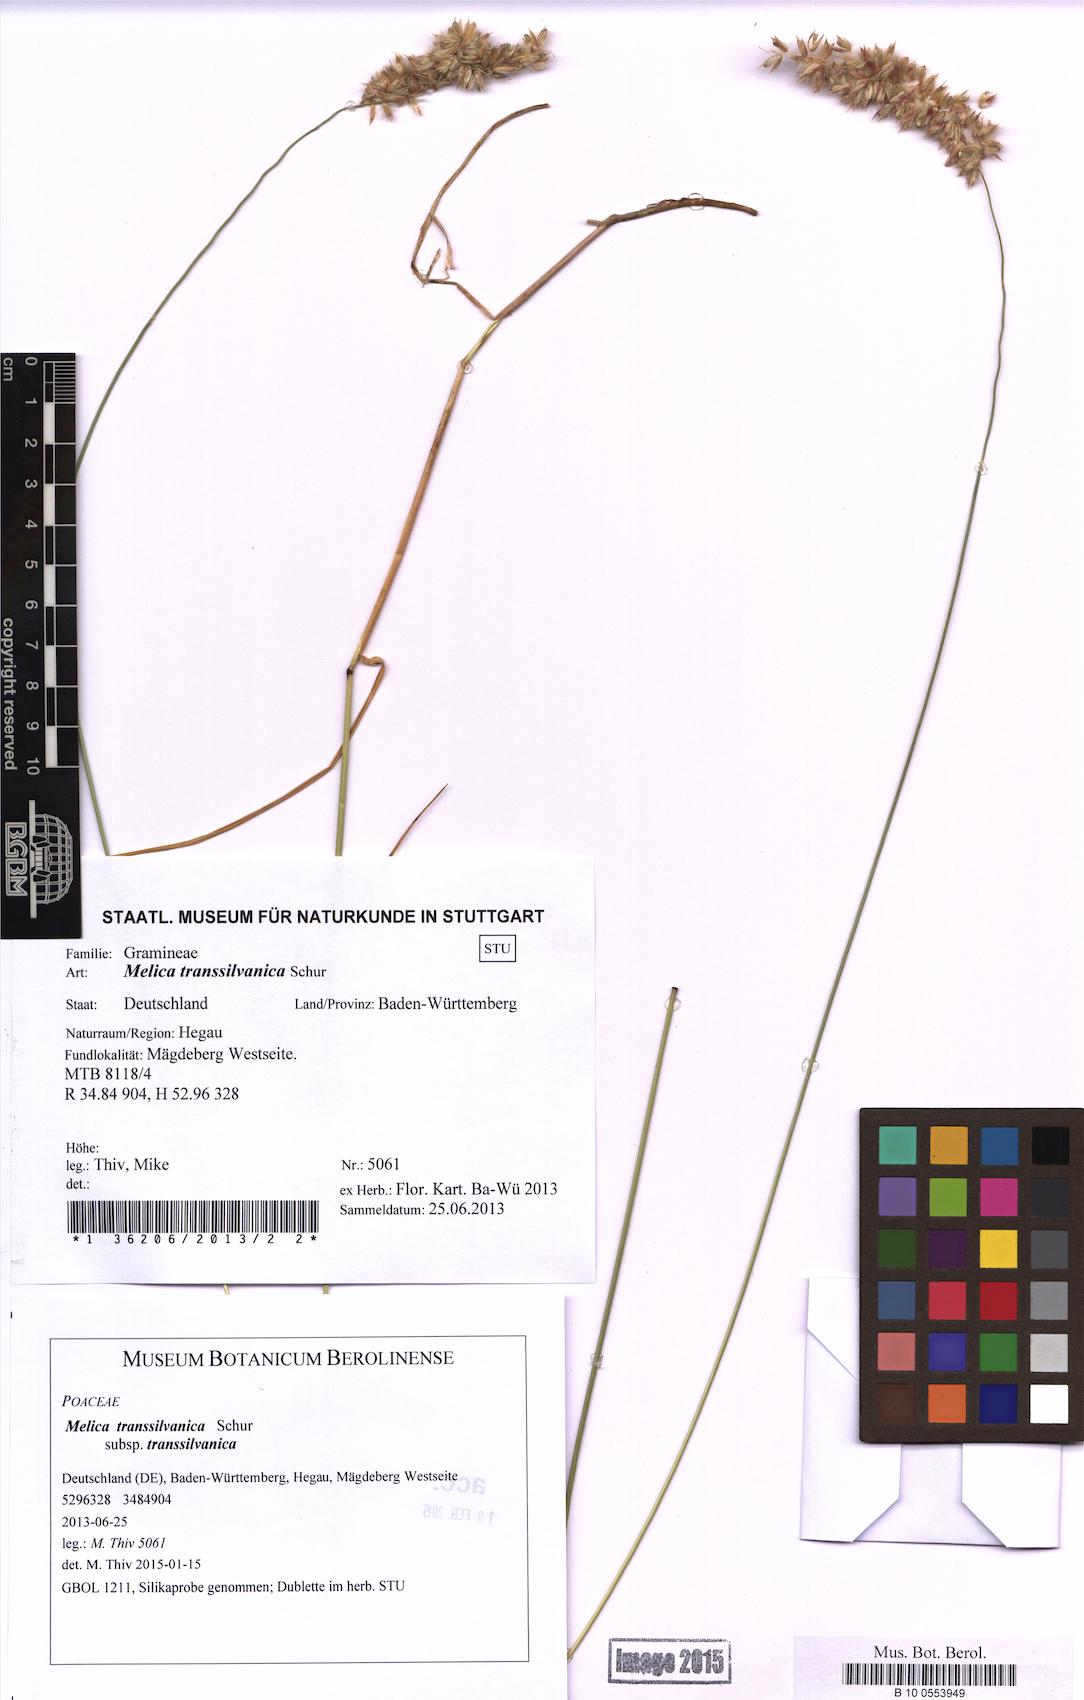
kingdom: Plantae
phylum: Tracheophyta
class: Liliopsida
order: Poales
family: Poaceae
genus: Melica
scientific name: Melica transsilvanica
